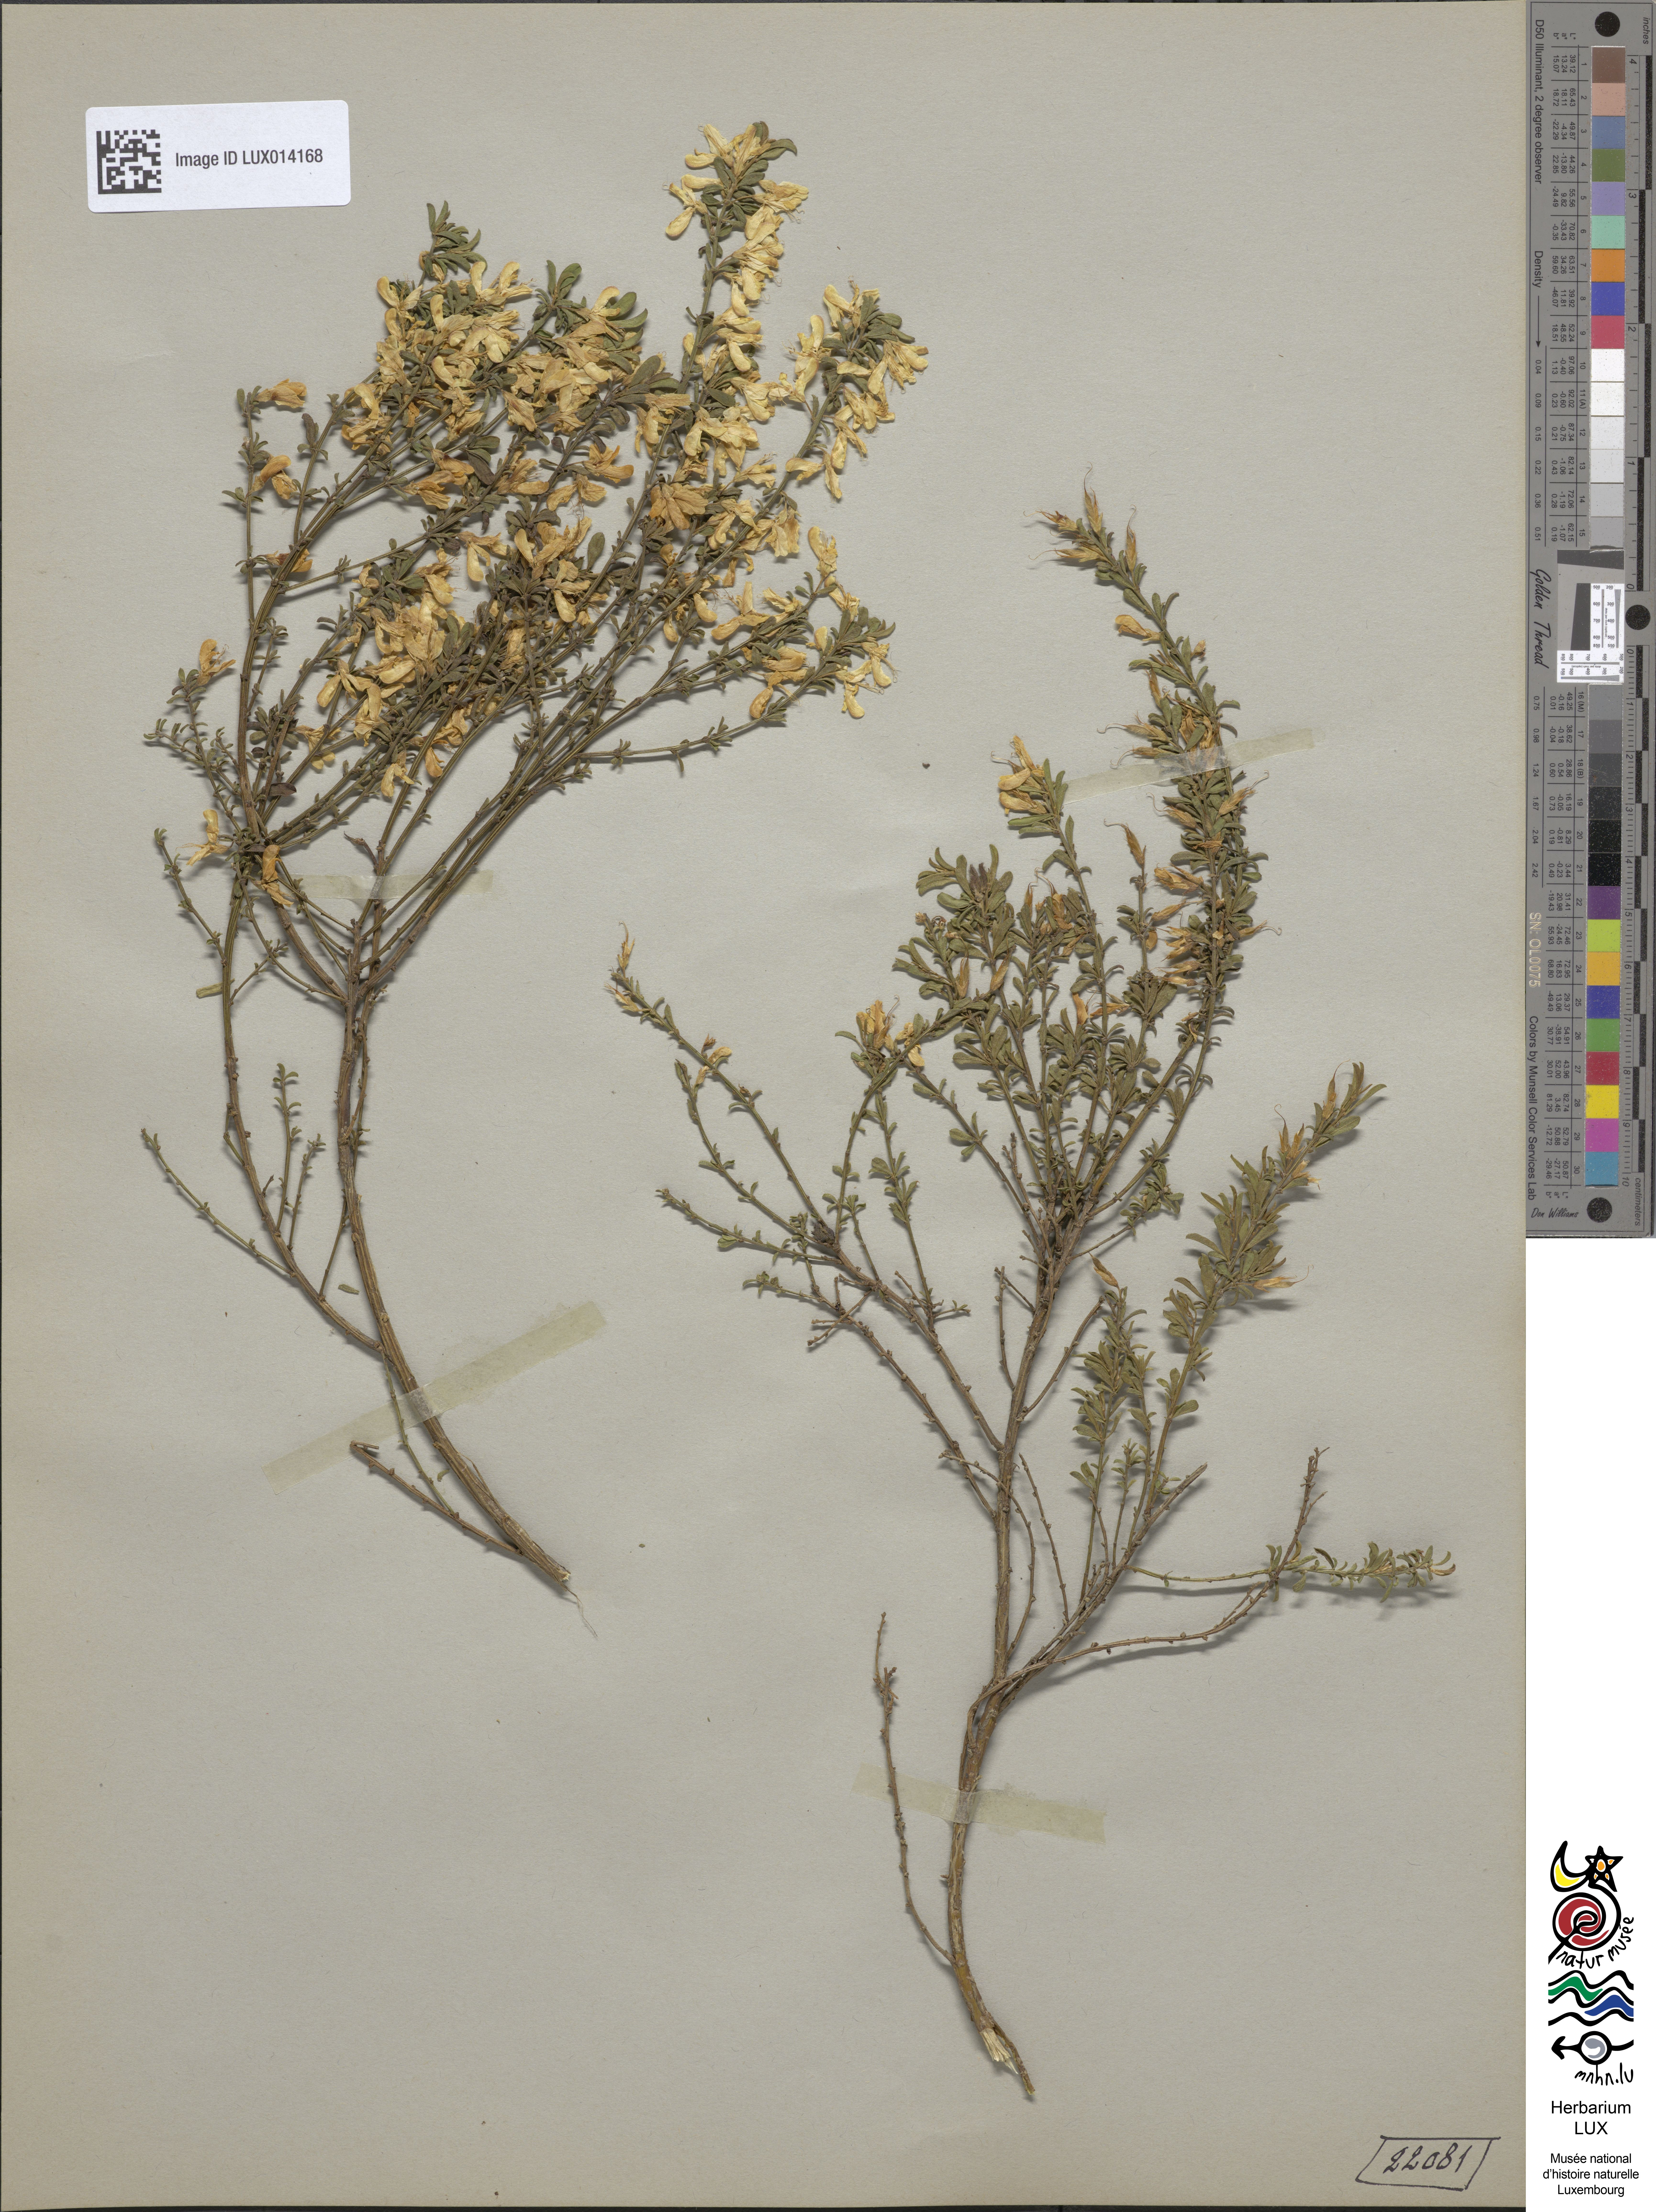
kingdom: Plantae
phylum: Tracheophyta
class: Magnoliopsida
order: Fabales
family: Fabaceae
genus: Genista
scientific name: Genista pilosa
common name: Hairy greenweed
